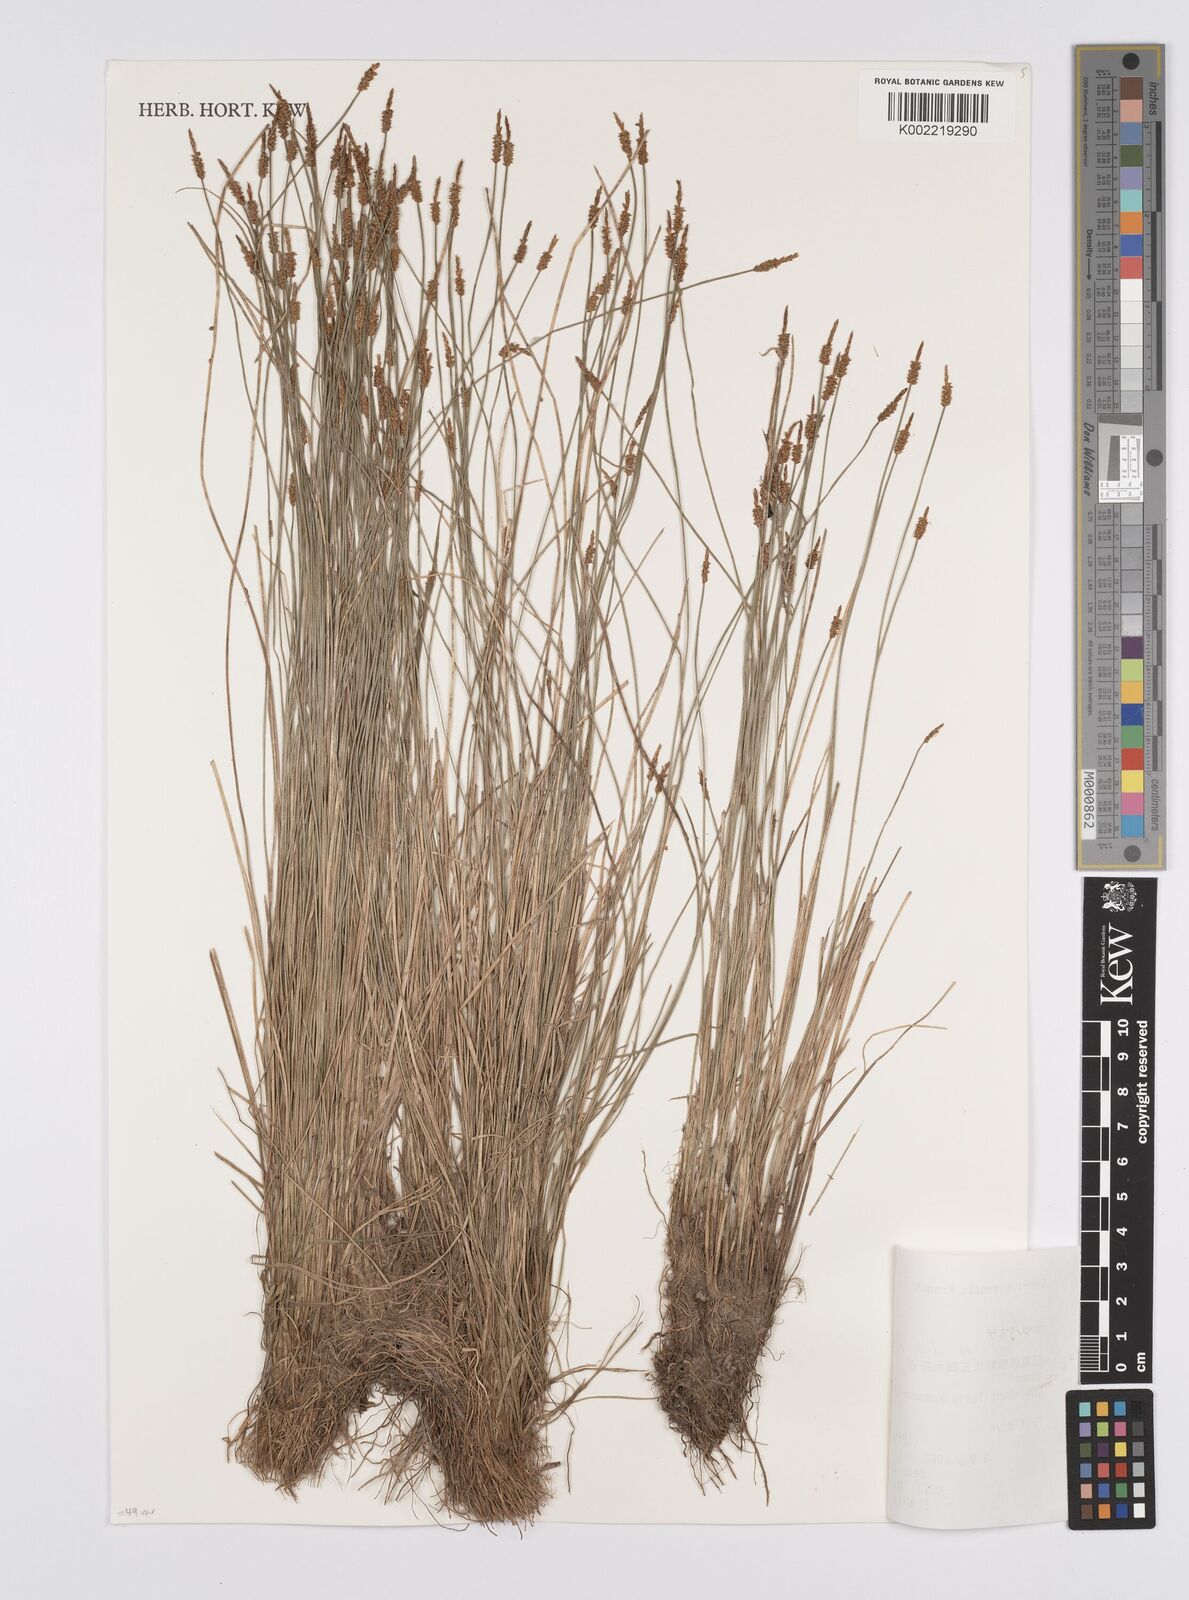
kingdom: Plantae
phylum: Tracheophyta
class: Liliopsida
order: Poales
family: Cyperaceae
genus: Carex
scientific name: Carex rara
